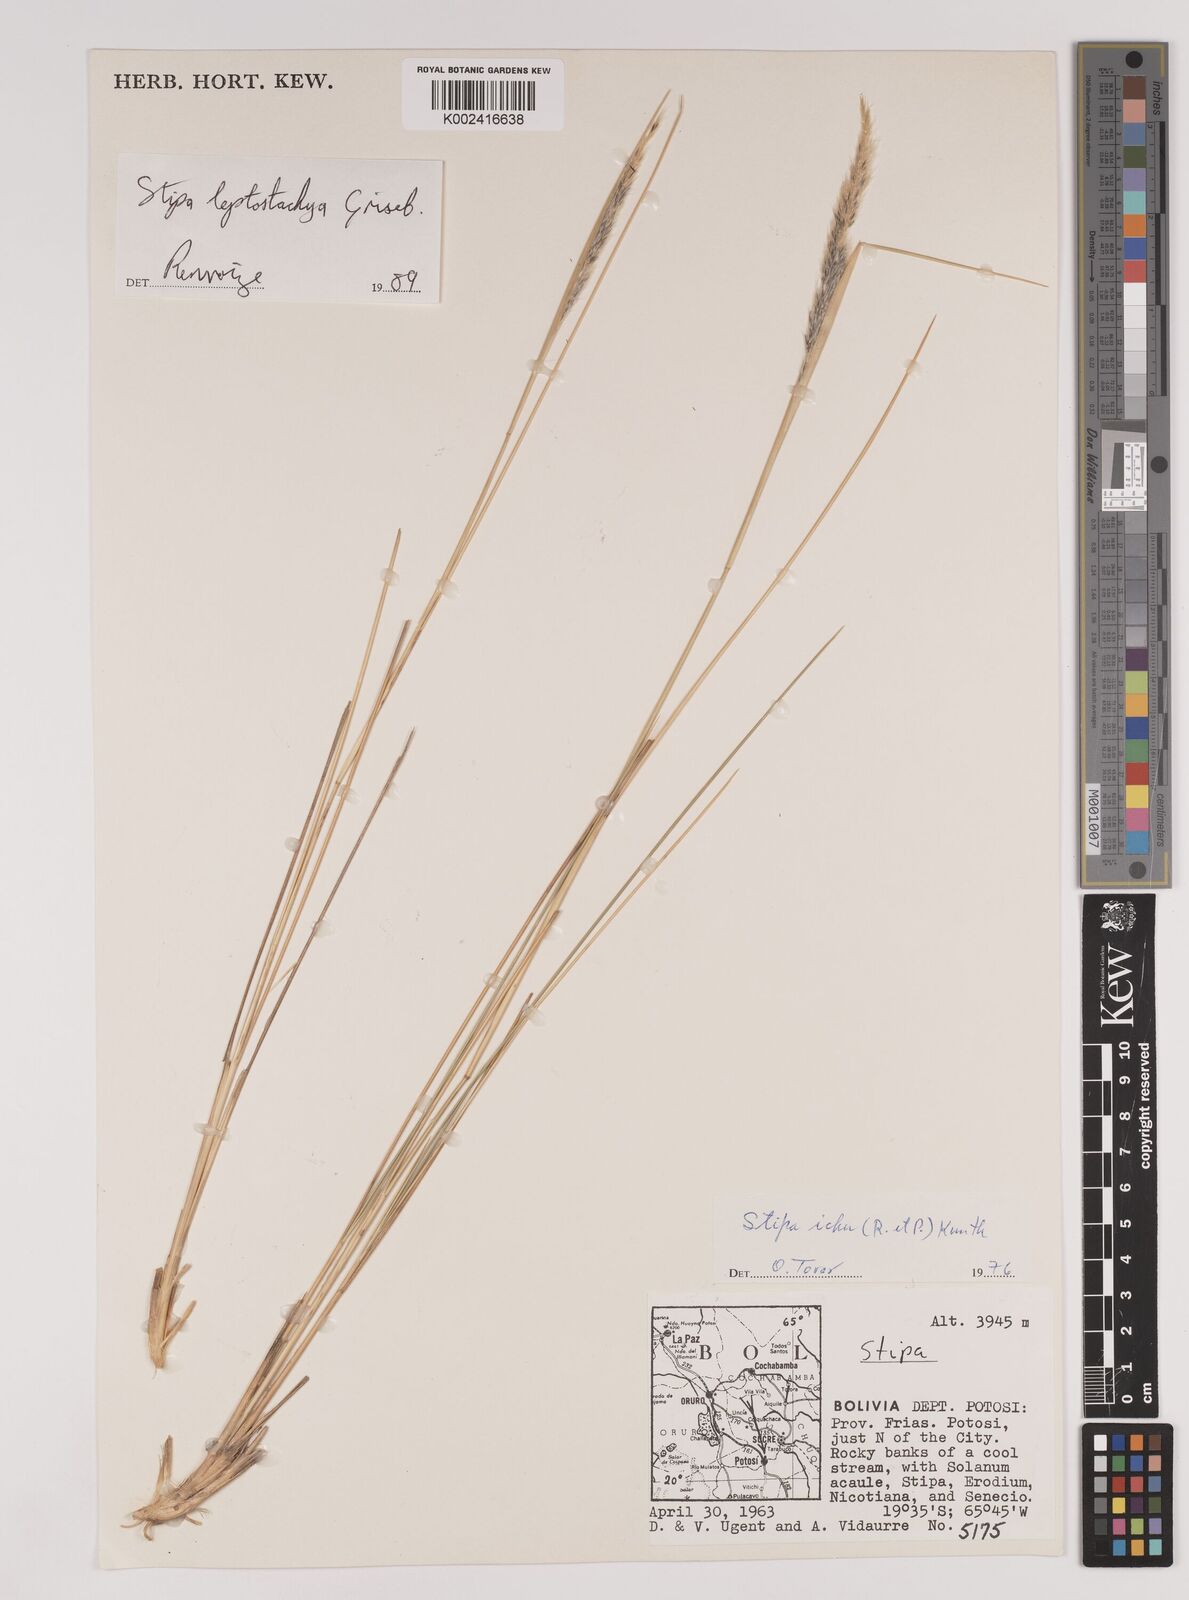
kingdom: Plantae
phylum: Tracheophyta
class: Liliopsida
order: Poales
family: Poaceae
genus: Jarava
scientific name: Jarava leptostachya
